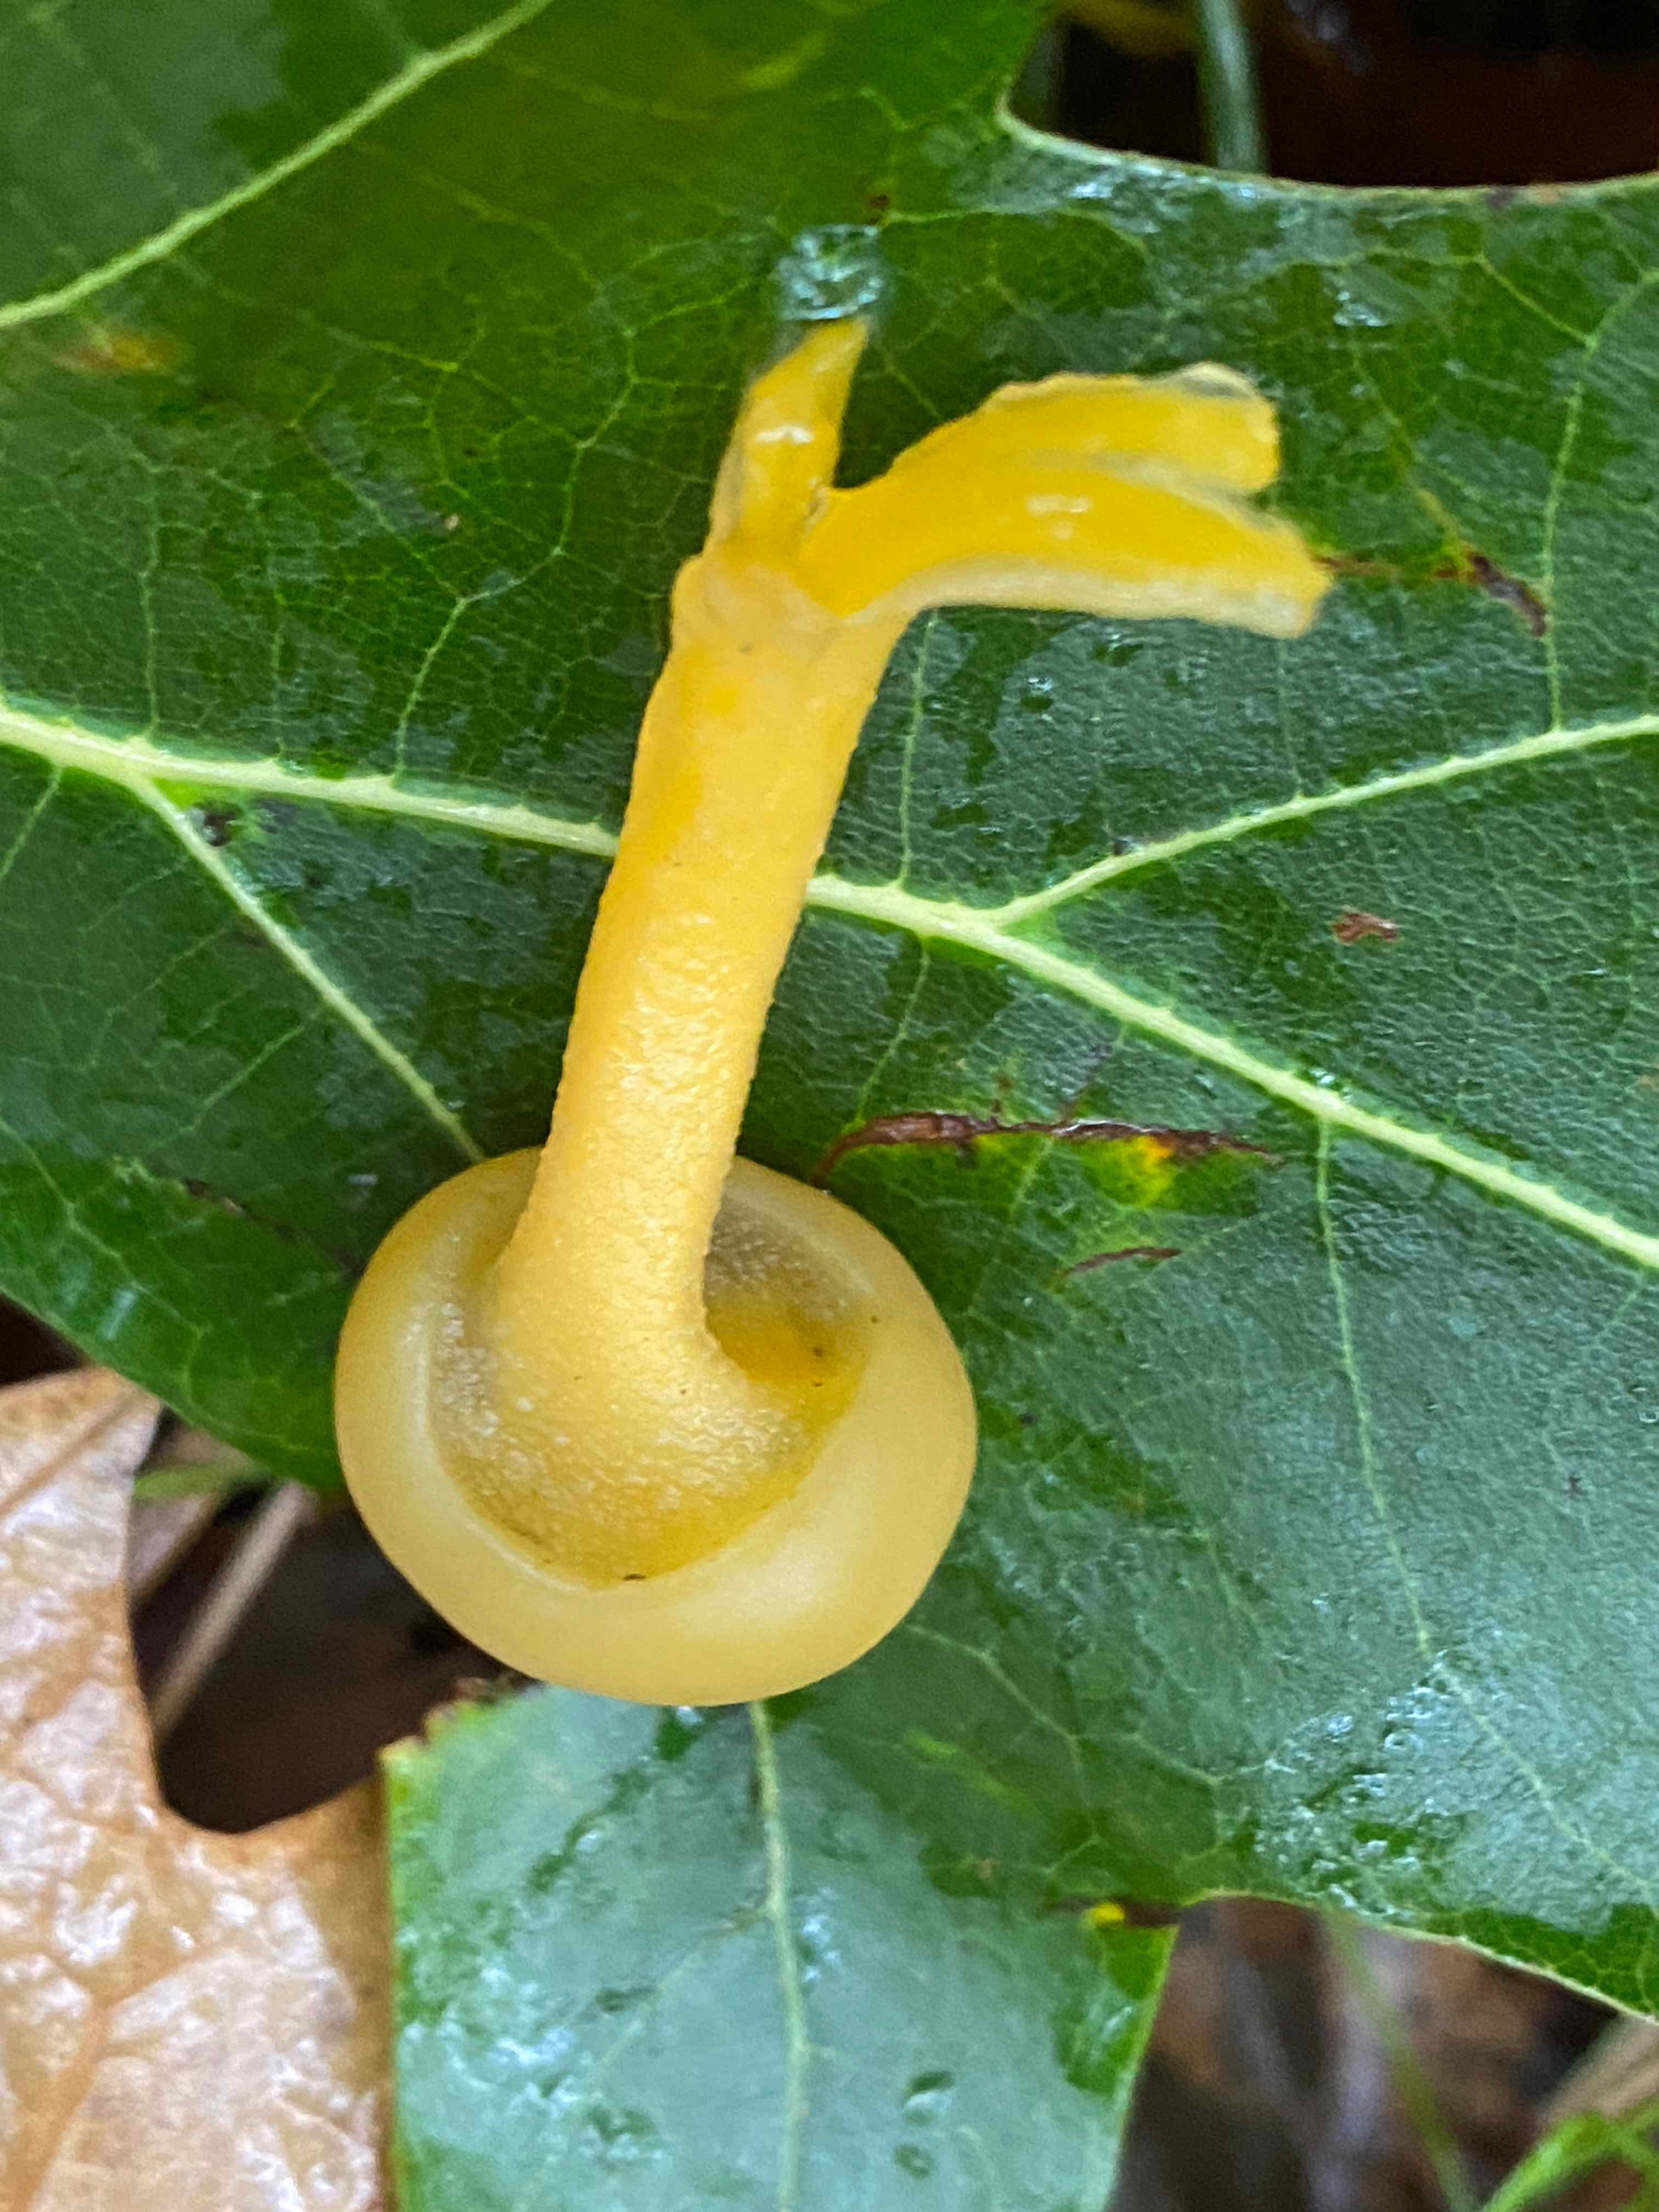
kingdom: Fungi
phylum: Ascomycota
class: Leotiomycetes
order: Leotiales
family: Leotiaceae
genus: Leotia
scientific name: Leotia lubrica
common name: ravsvamp
